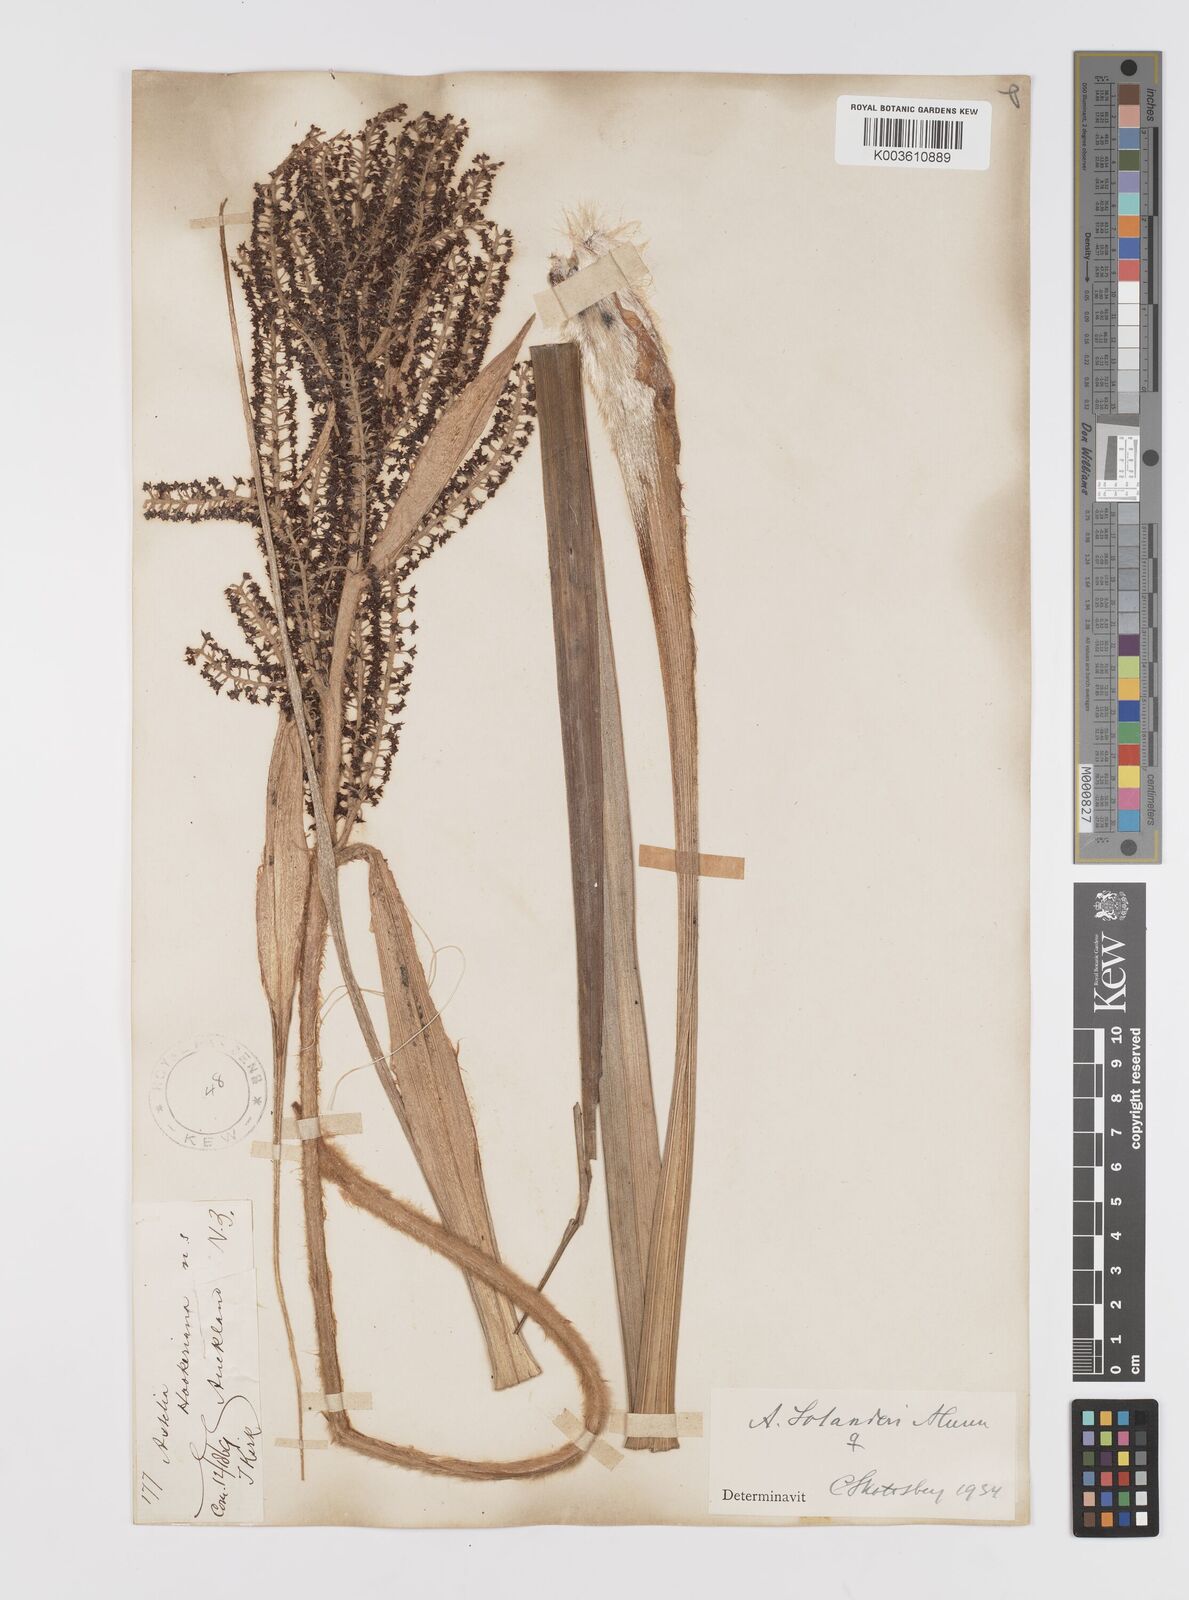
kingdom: Plantae
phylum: Tracheophyta
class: Liliopsida
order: Asparagales
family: Asteliaceae
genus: Astelia
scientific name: Astelia solandri
